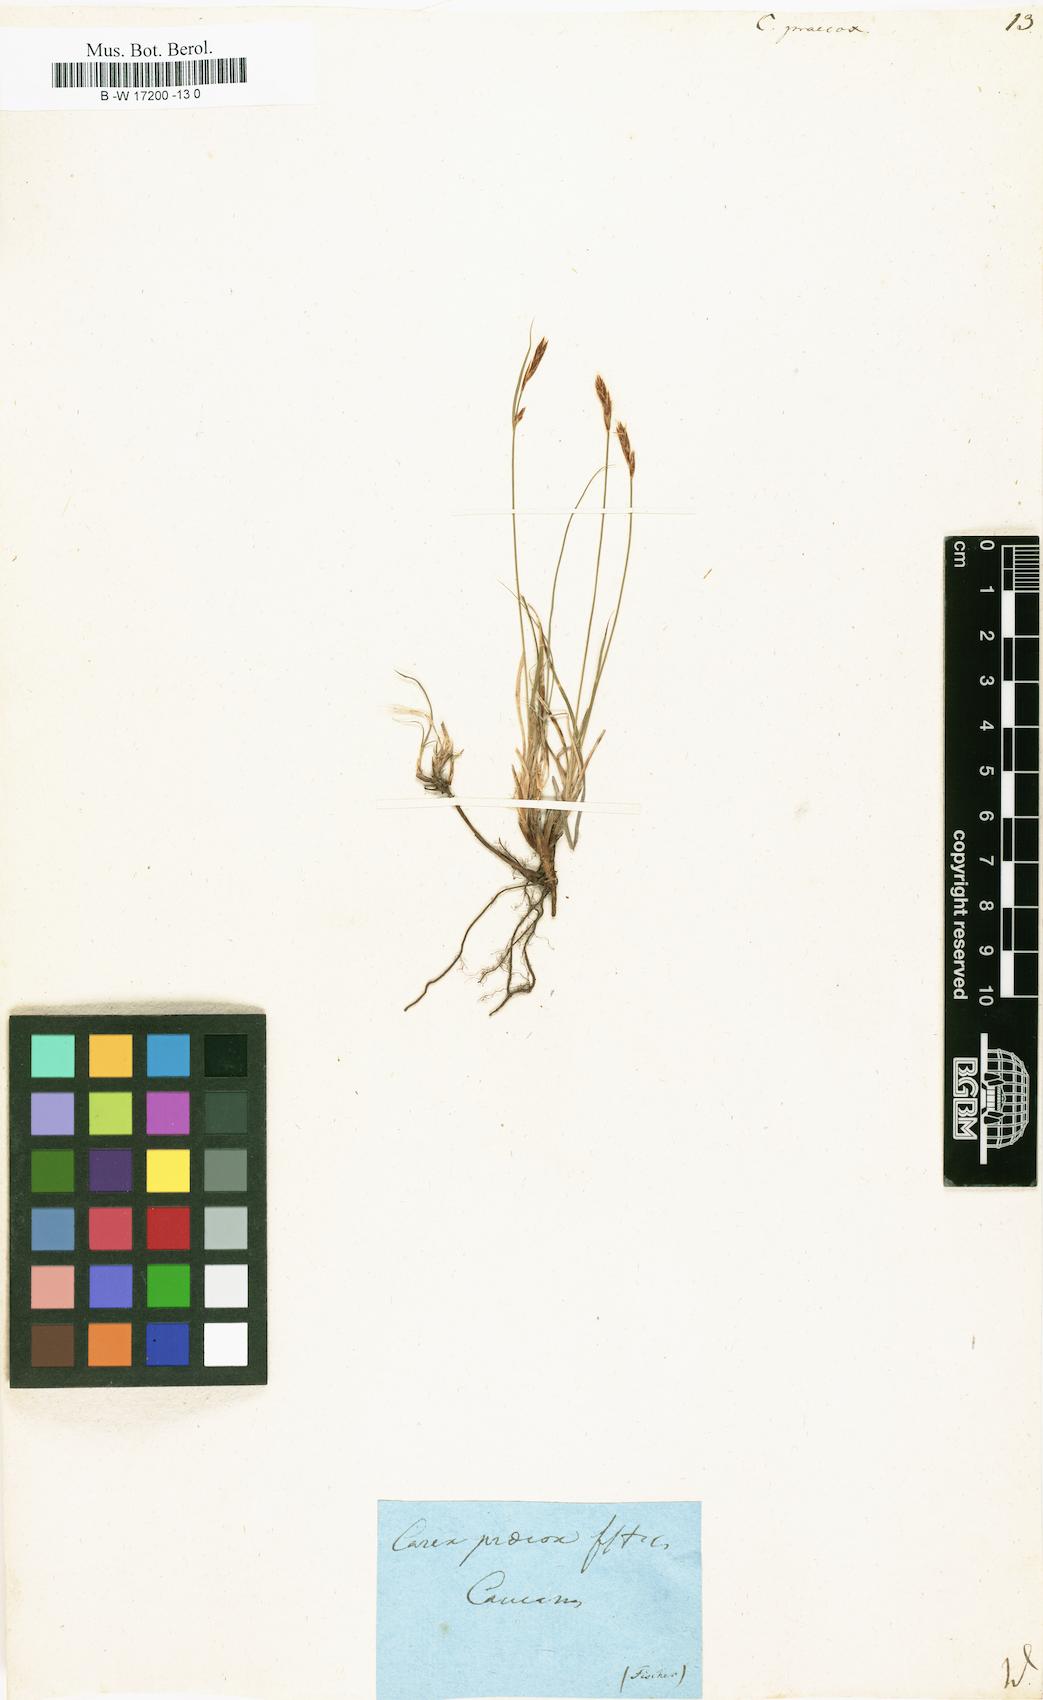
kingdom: Plantae
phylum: Tracheophyta
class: Liliopsida
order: Poales
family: Cyperaceae
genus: Carex
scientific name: Carex praecox
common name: Early sedge
